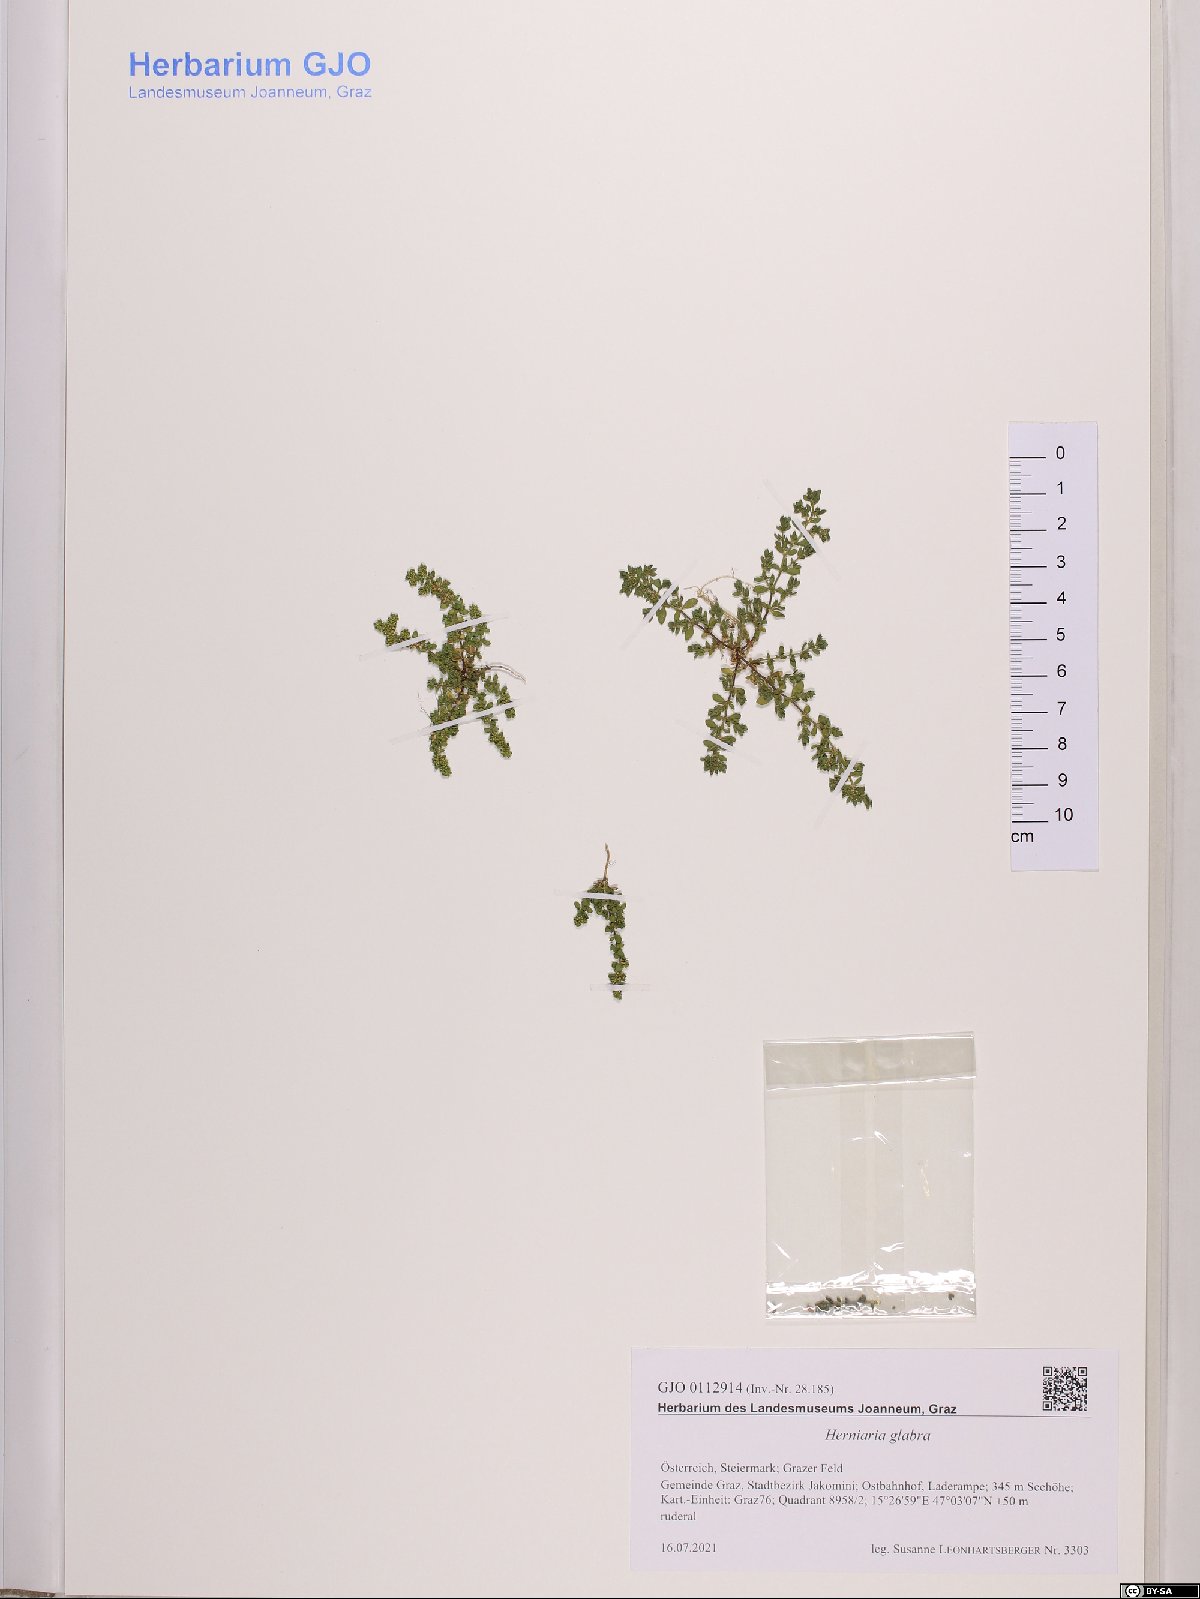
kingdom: Plantae
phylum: Tracheophyta
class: Magnoliopsida
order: Caryophyllales
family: Caryophyllaceae
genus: Herniaria
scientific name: Herniaria glabra
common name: Smooth rupturewort
